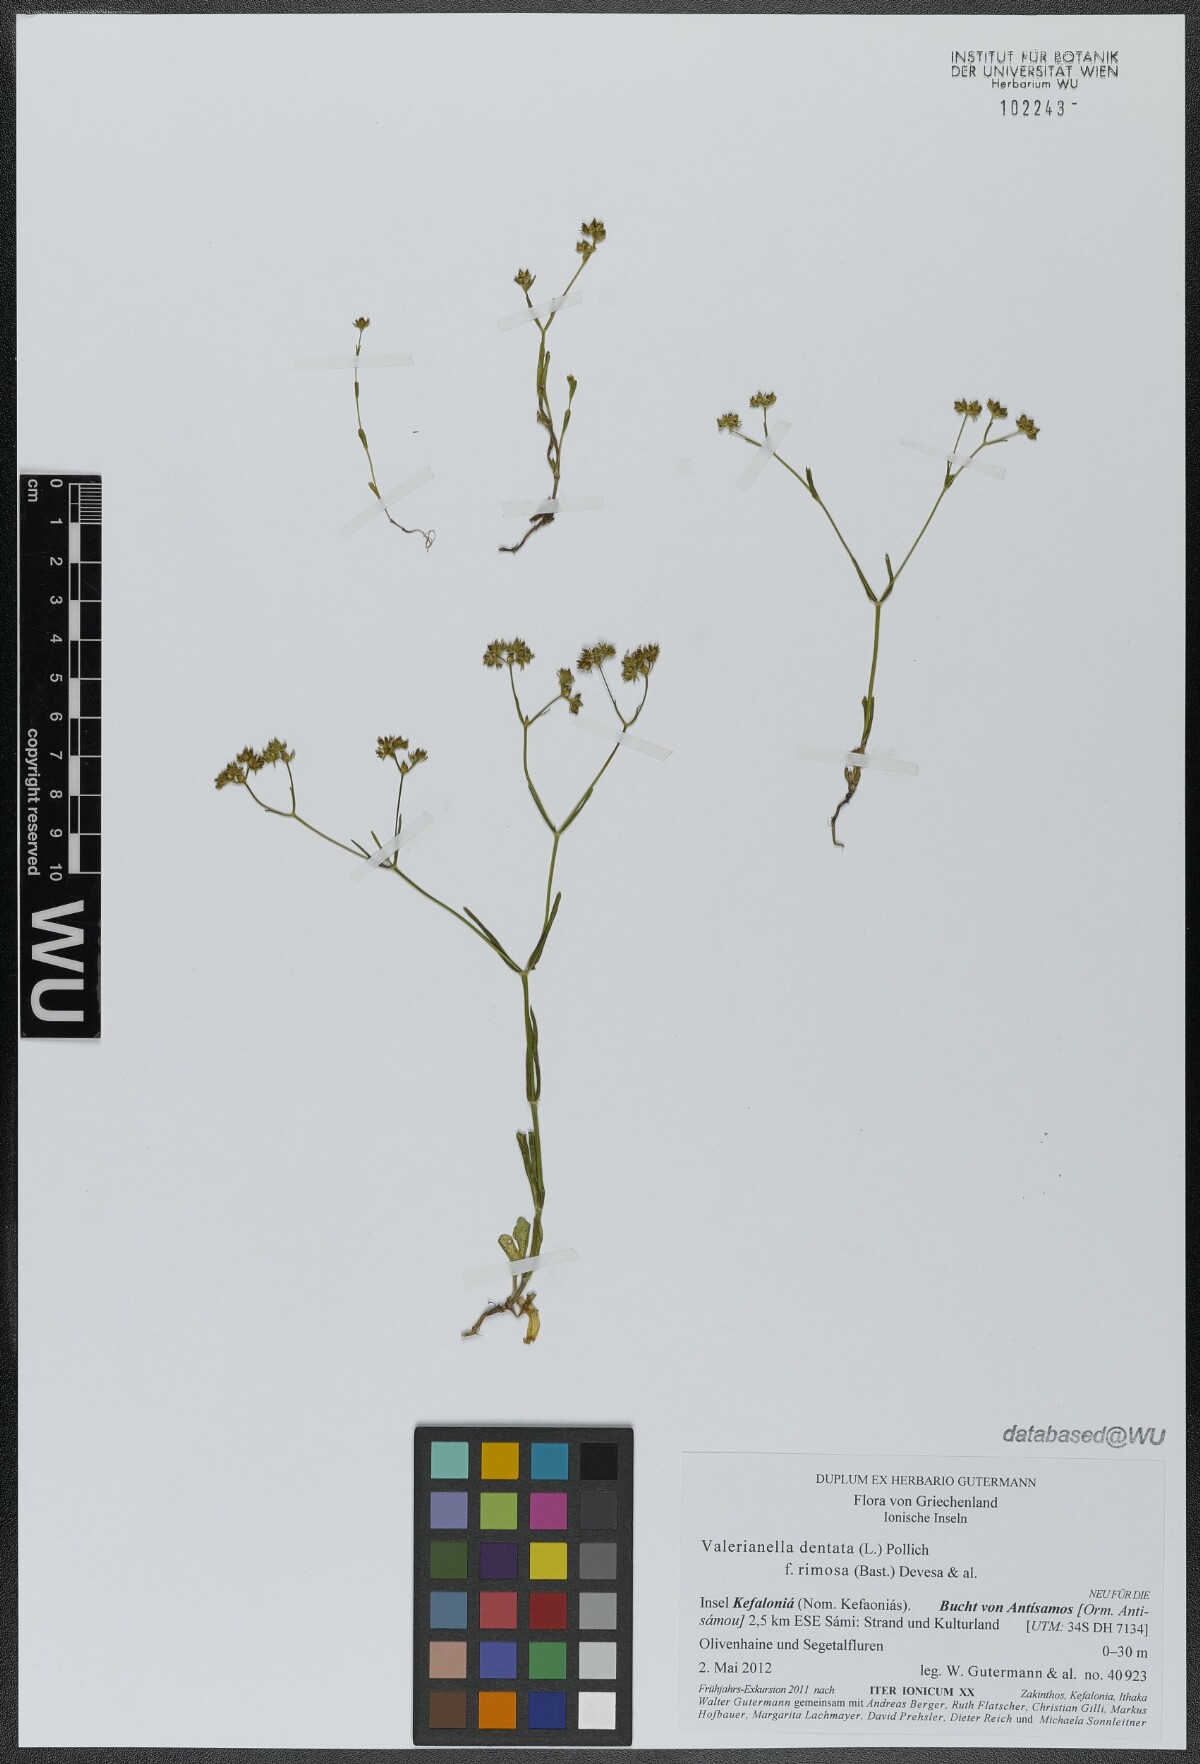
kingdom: Plantae
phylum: Tracheophyta
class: Magnoliopsida
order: Dipsacales
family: Caprifoliaceae
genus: Valerianella
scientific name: Valerianella dentata
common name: Narrow-fruited cornsalad
